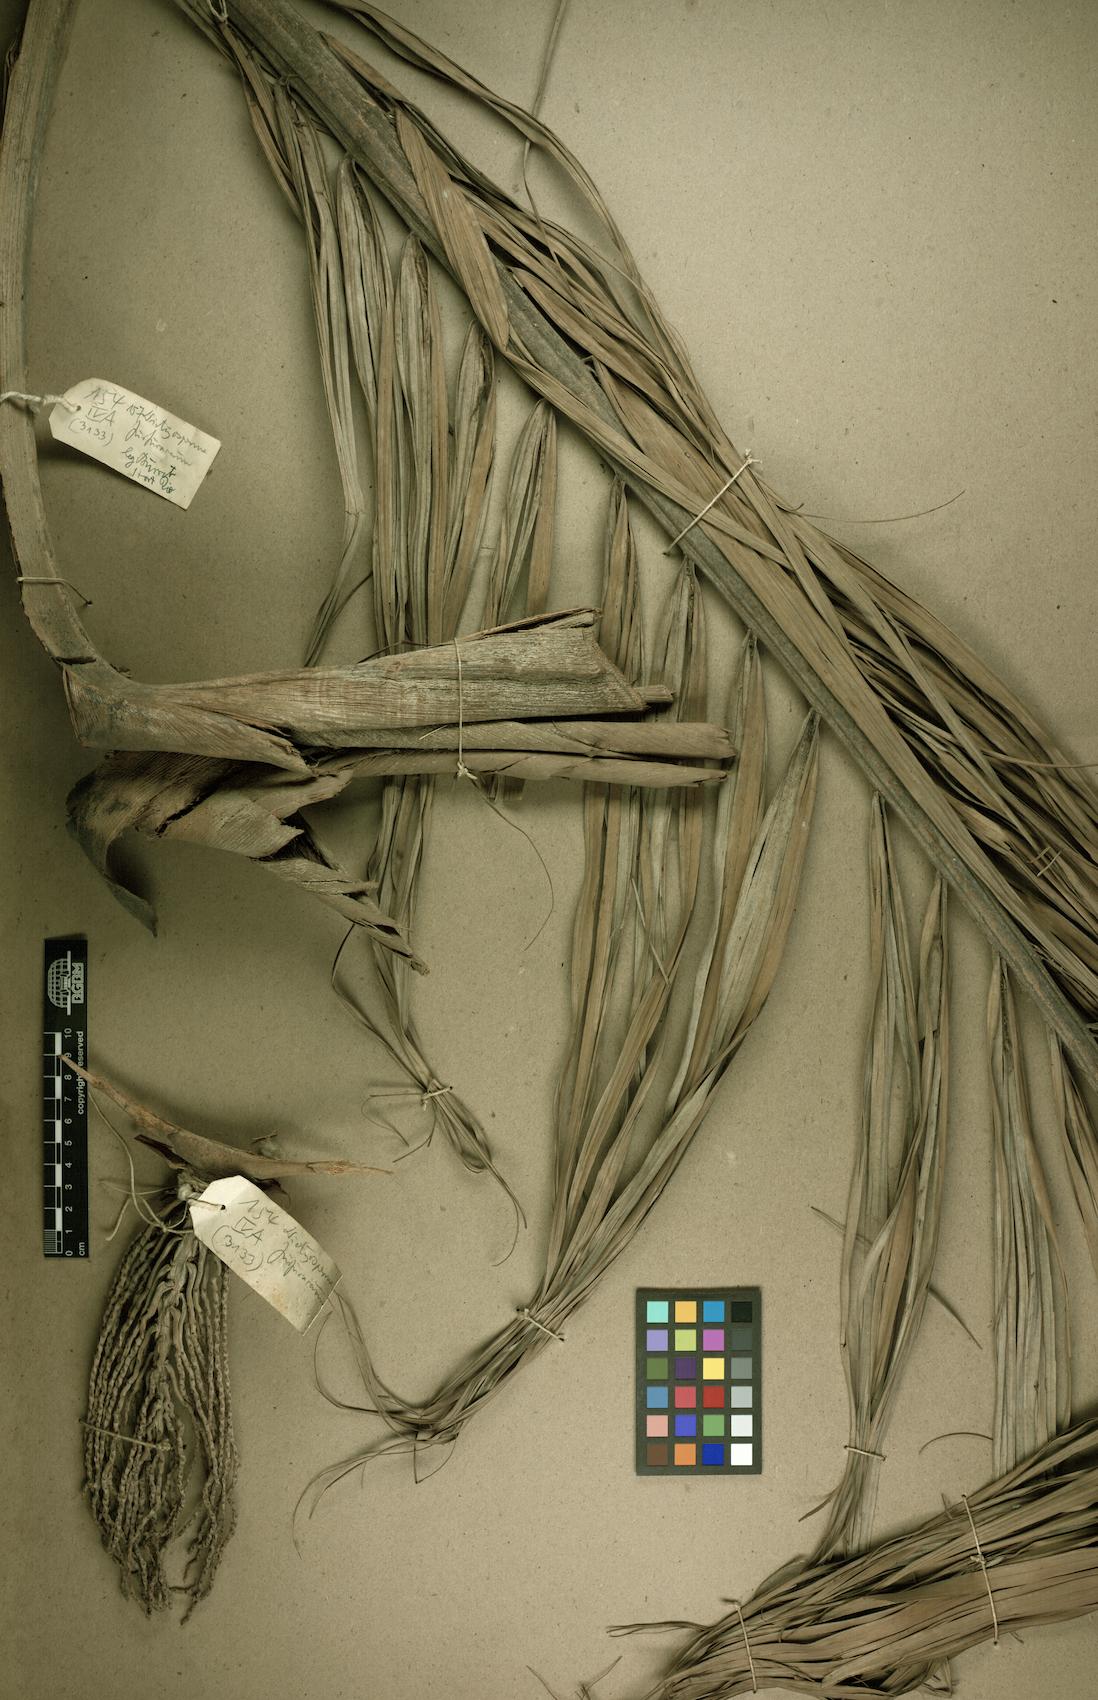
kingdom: Plantae
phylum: Tracheophyta
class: Liliopsida
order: Arecales
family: Arecaceae
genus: Dictyosperma
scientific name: Dictyosperma album
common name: Common princess palm
